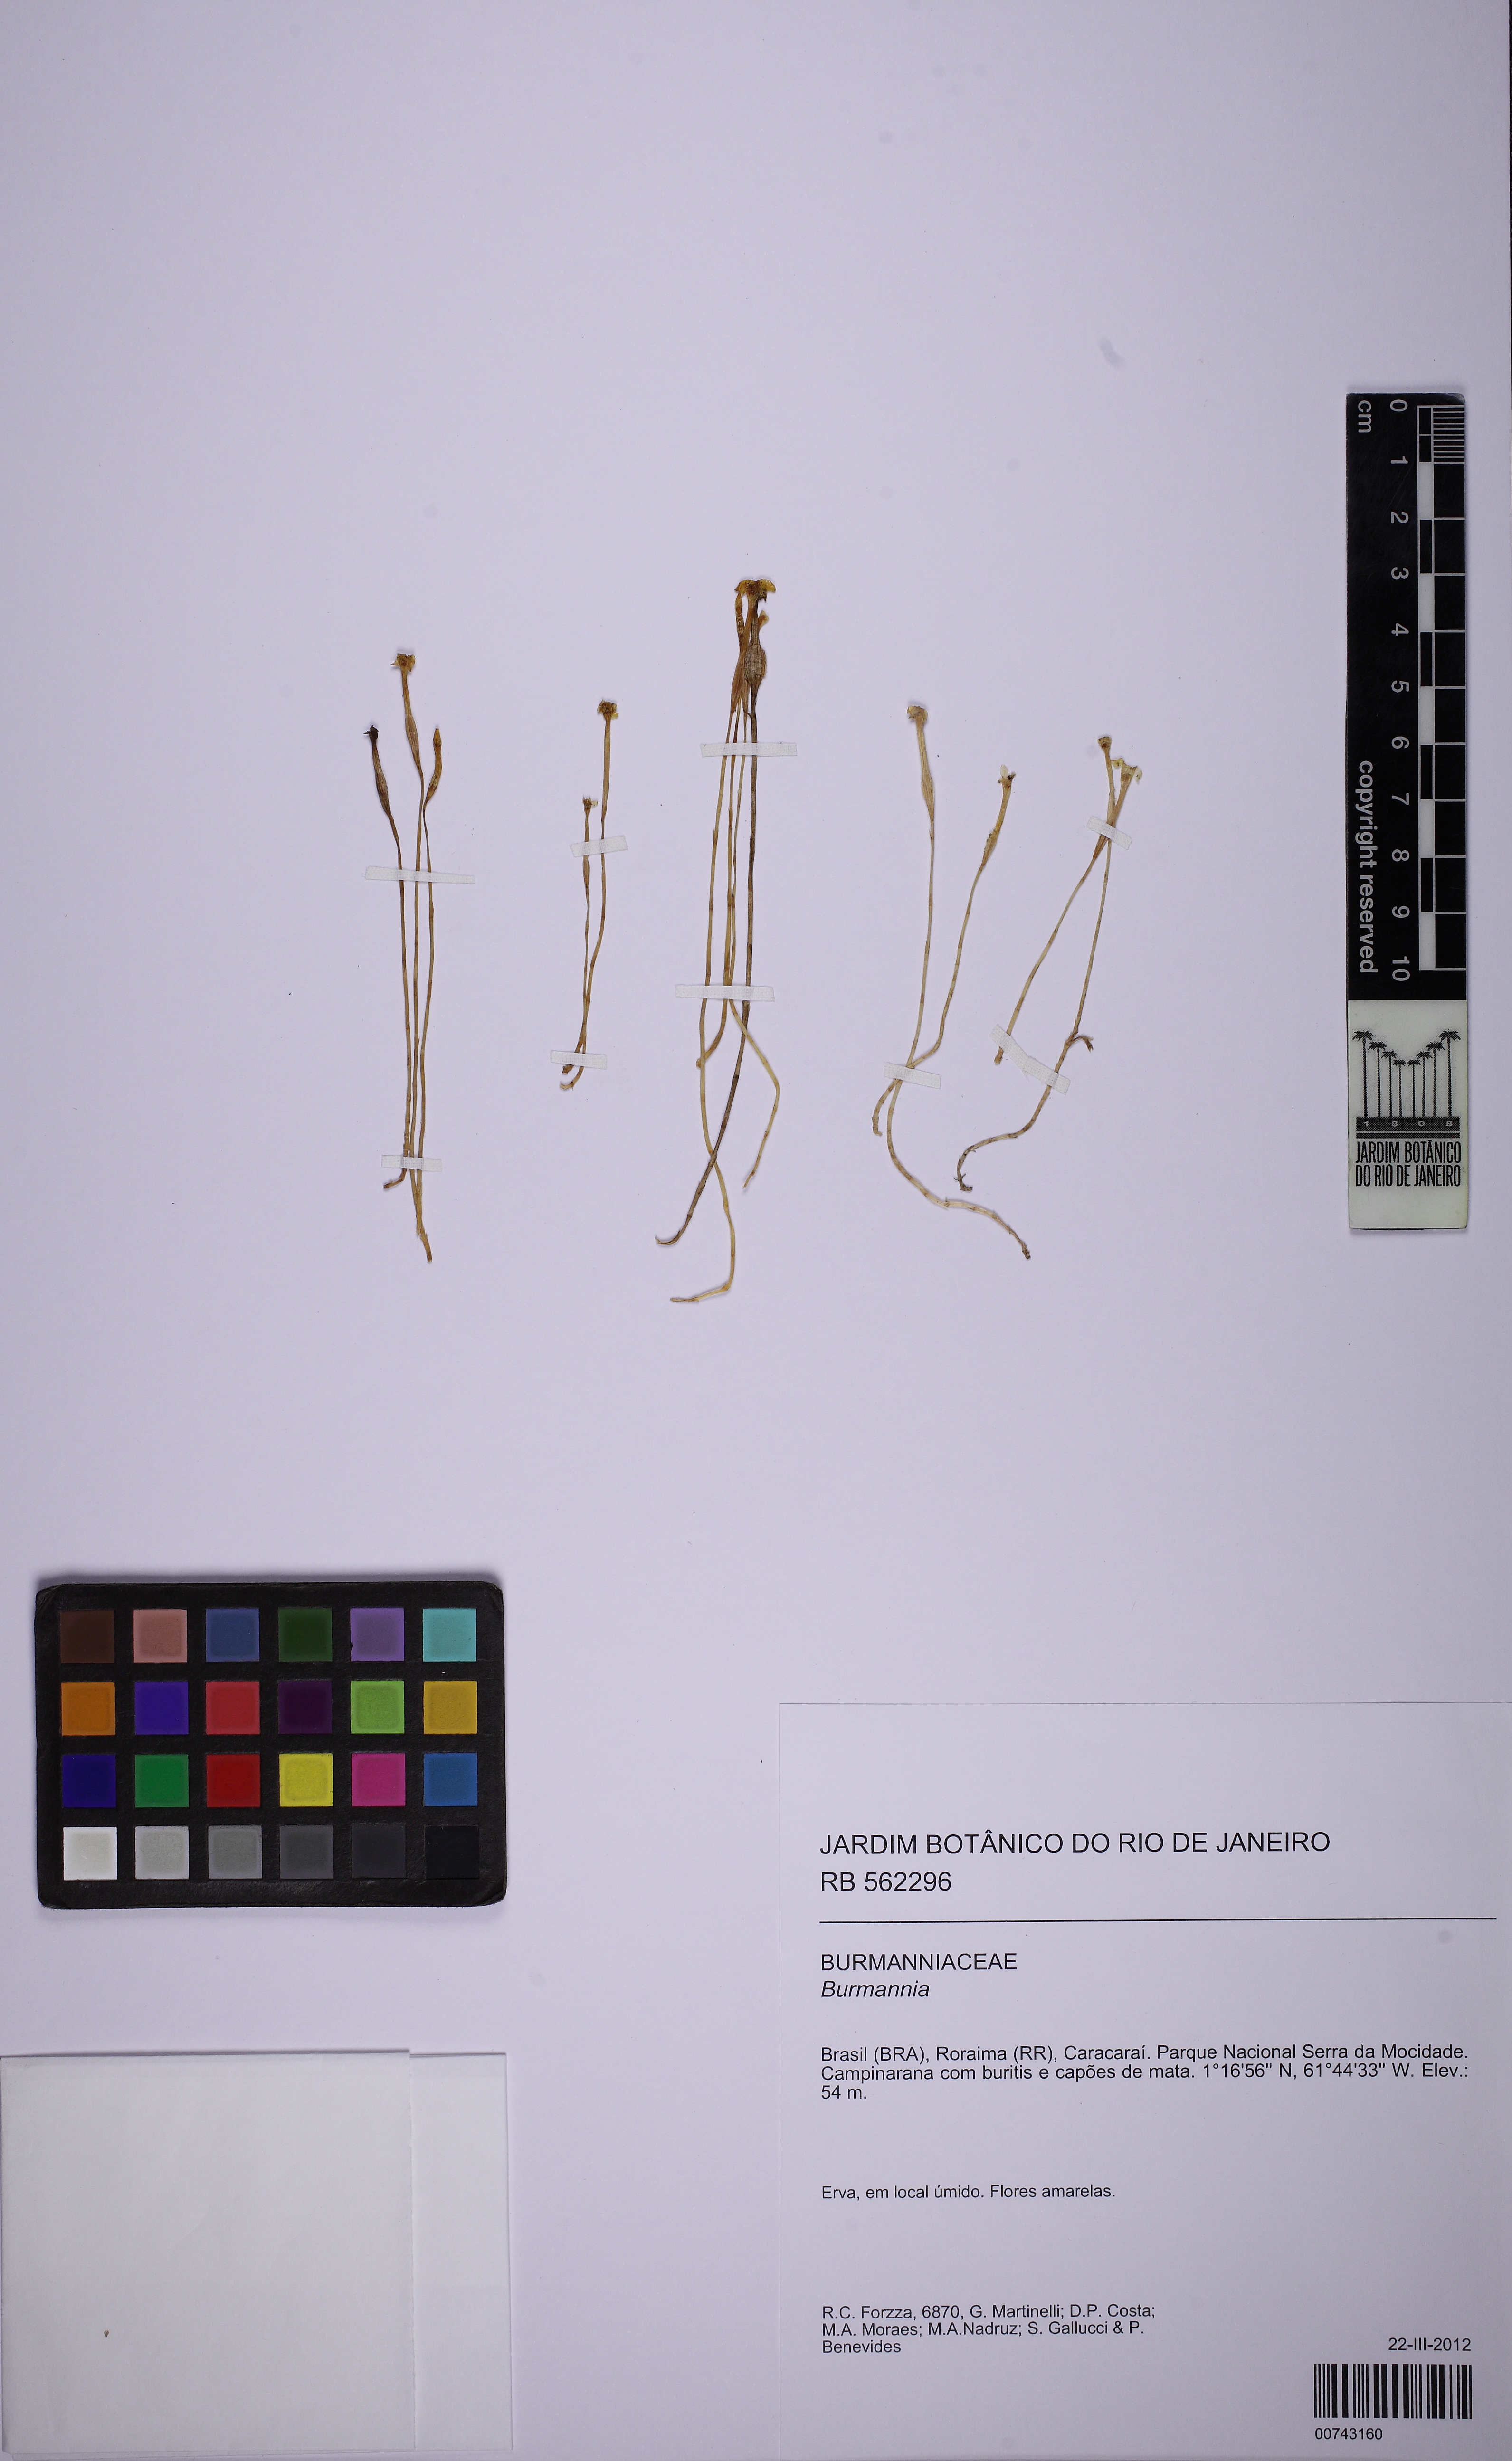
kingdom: Plantae
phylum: Tracheophyta
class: Liliopsida
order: Dioscoreales
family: Burmanniaceae
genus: Burmannia
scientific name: Burmannia
